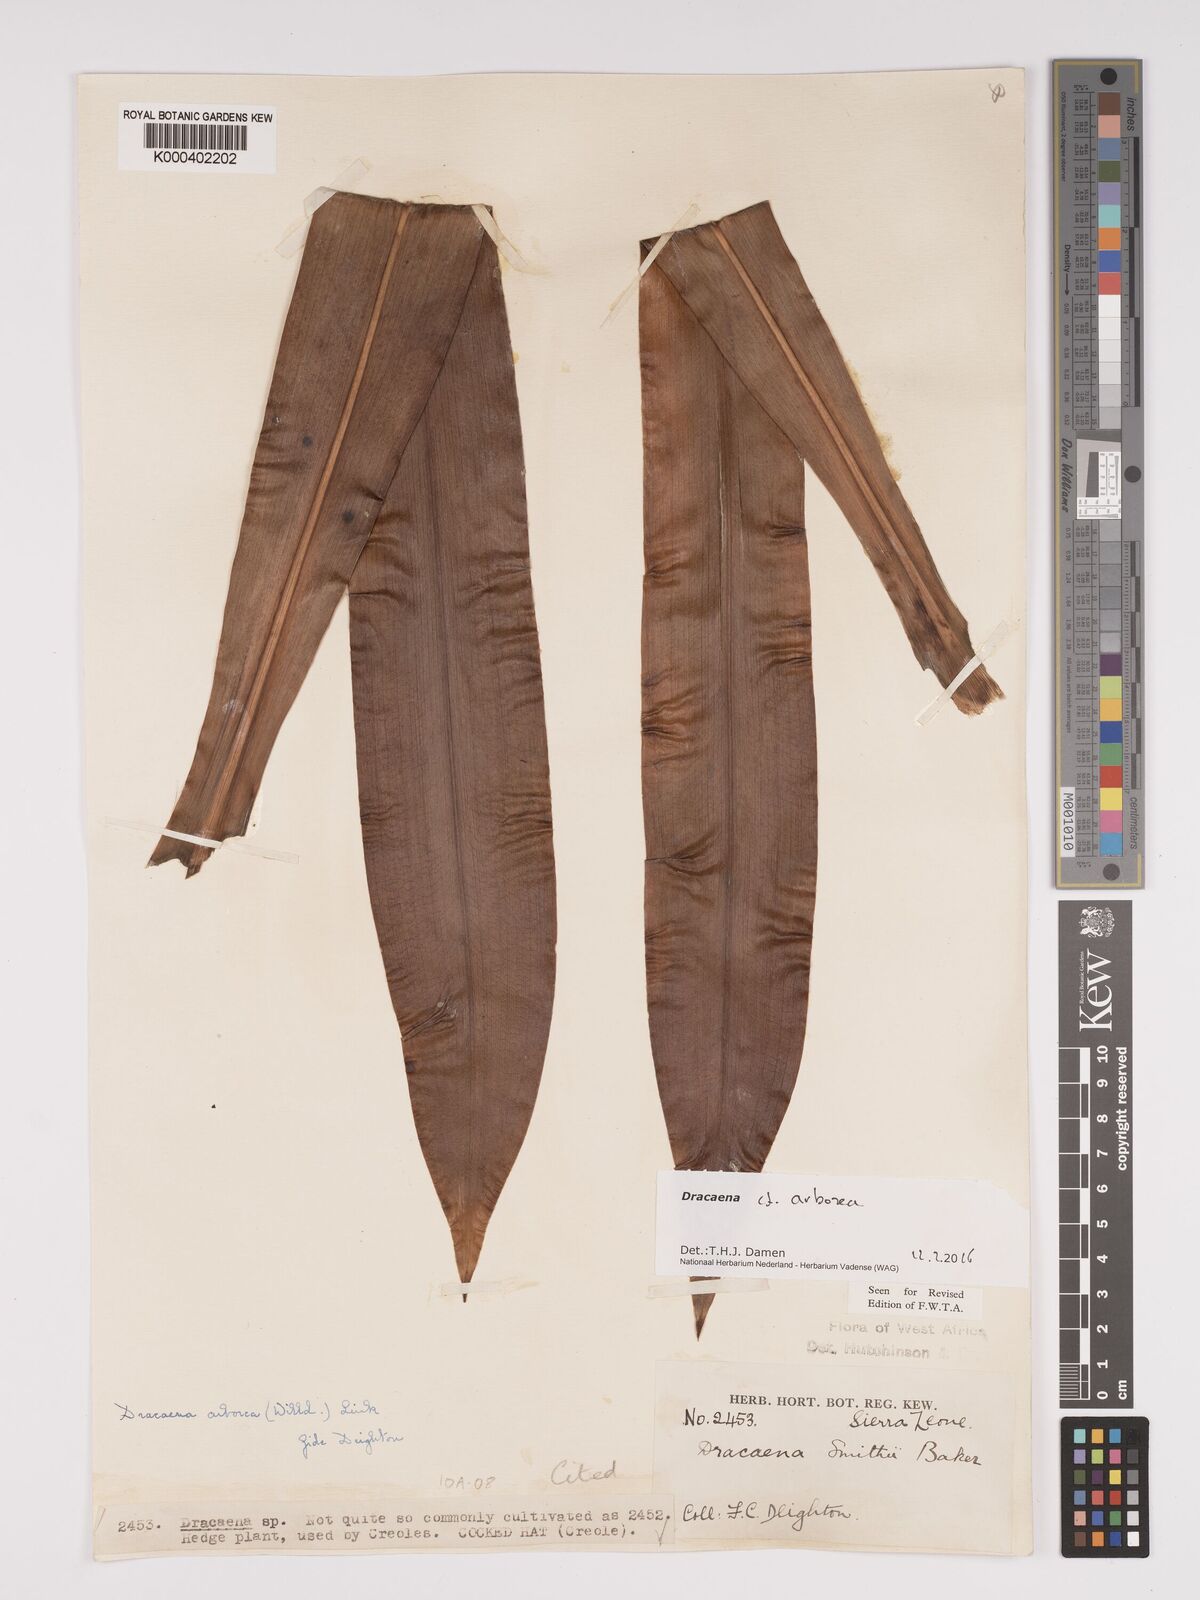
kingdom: Plantae
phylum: Tracheophyta
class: Liliopsida
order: Asparagales
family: Asparagaceae
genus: Dracaena
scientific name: Dracaena arborea
